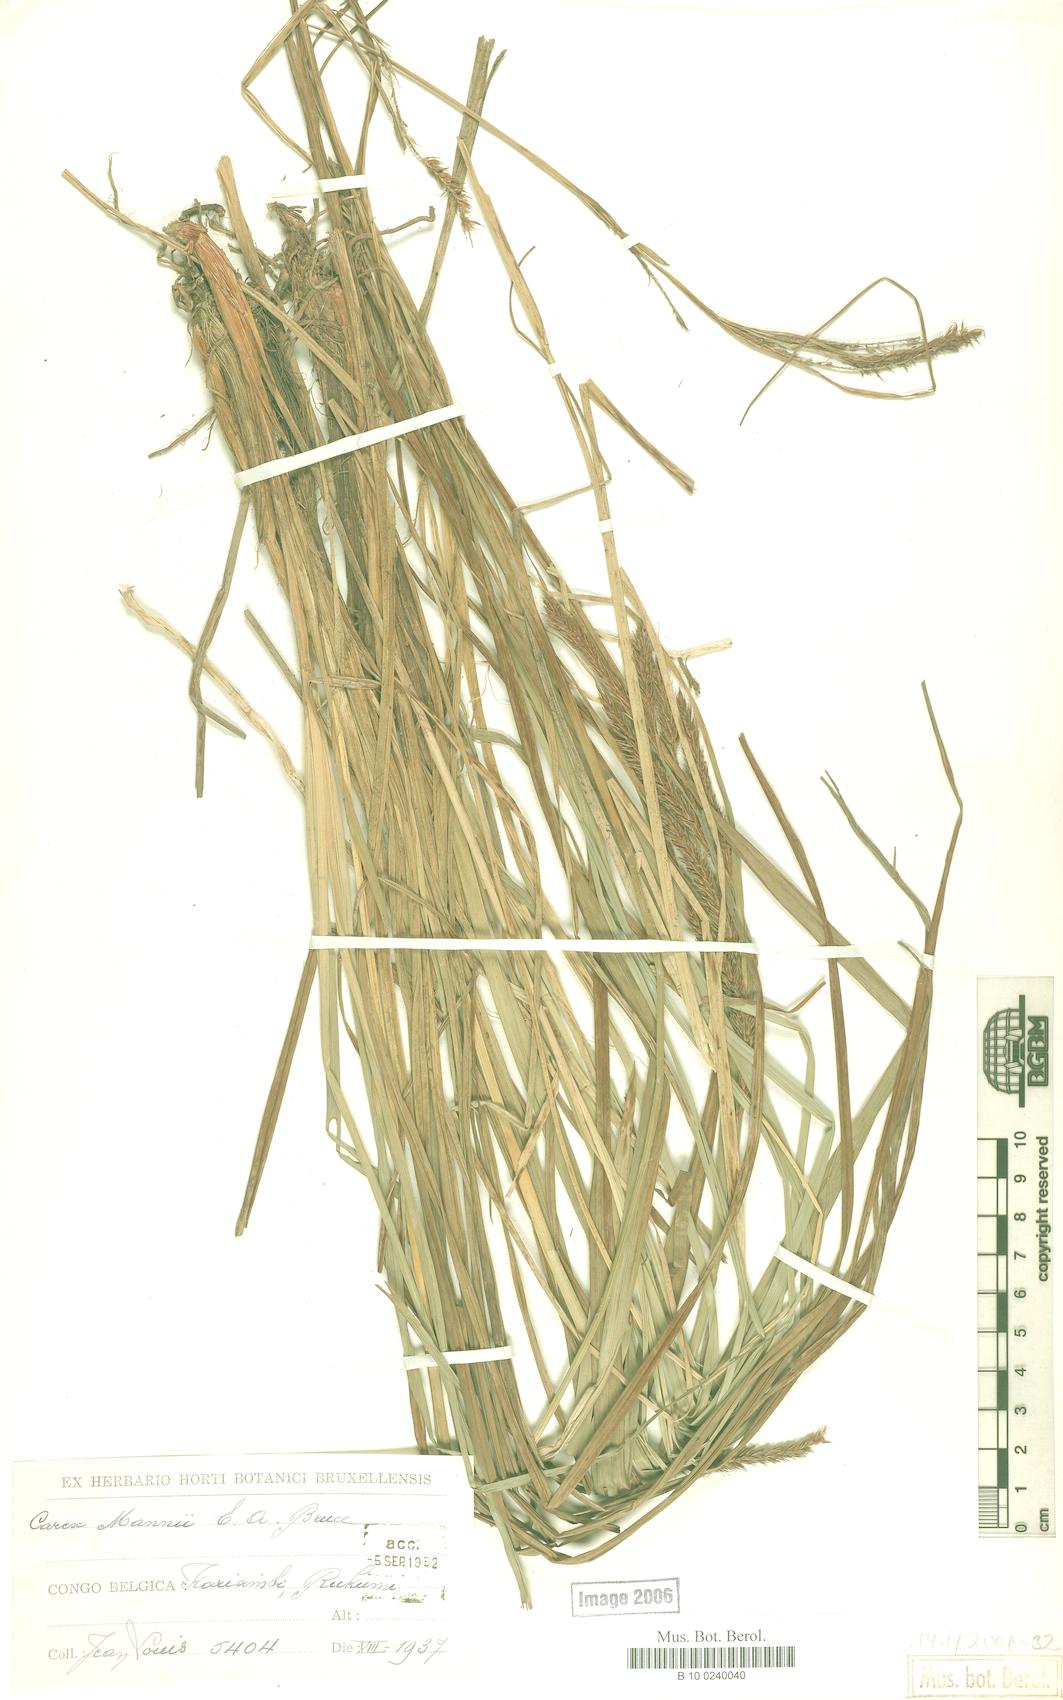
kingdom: Plantae
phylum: Tracheophyta
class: Liliopsida
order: Poales
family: Cyperaceae
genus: Carex
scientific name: Carex fischeri
